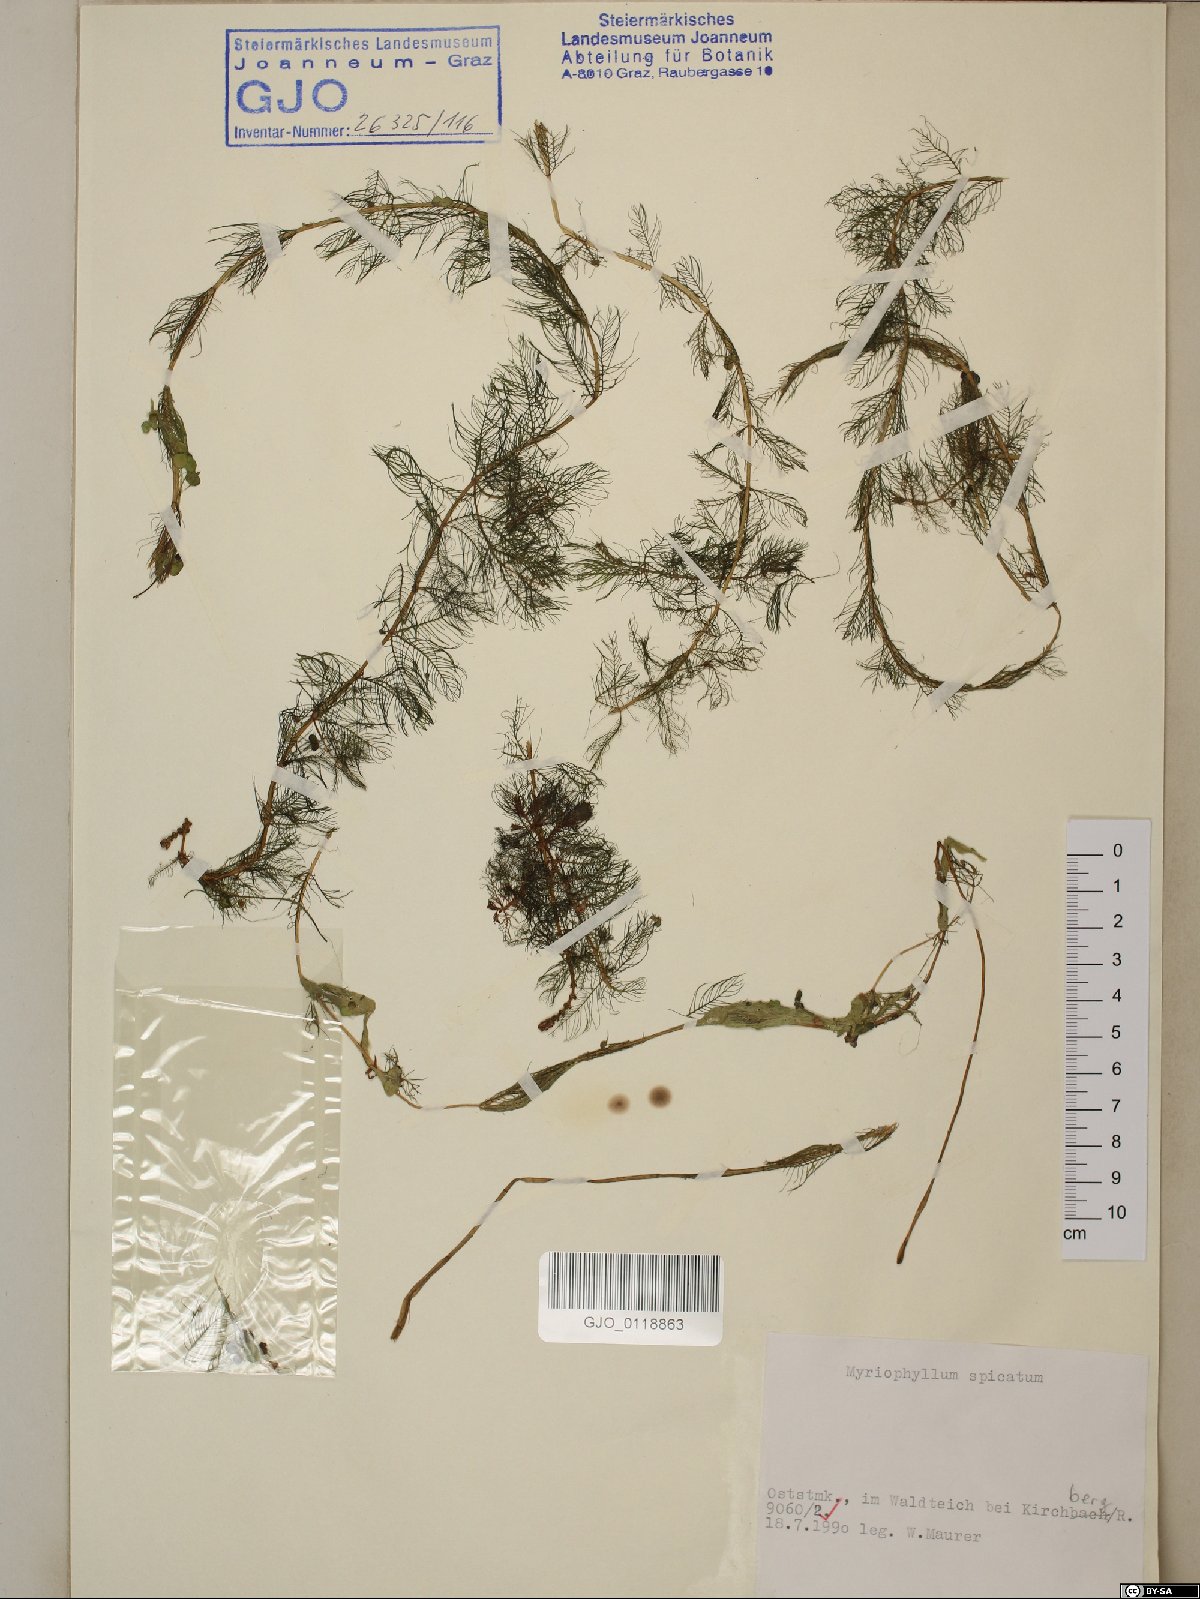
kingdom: Plantae
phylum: Tracheophyta
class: Magnoliopsida
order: Saxifragales
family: Haloragaceae
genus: Myriophyllum
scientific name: Myriophyllum spicatum
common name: Spiked water-milfoil
